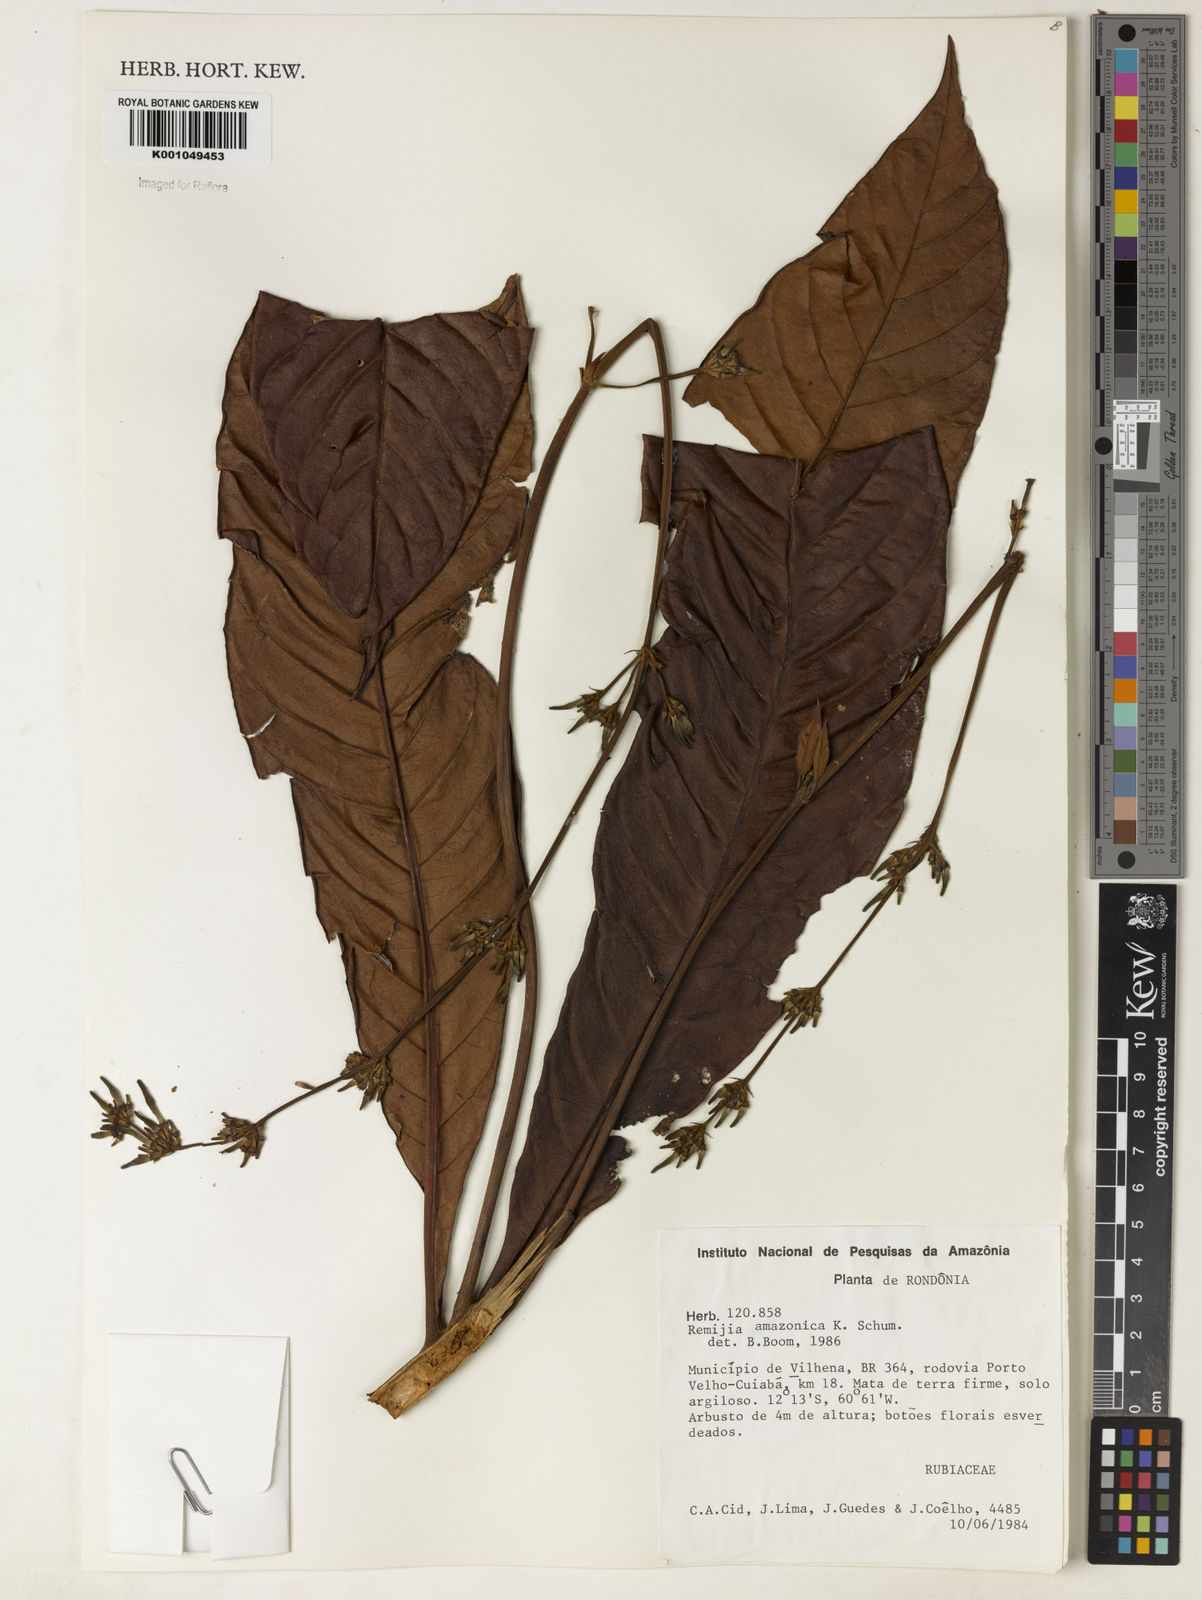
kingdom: Plantae
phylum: Tracheophyta
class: Magnoliopsida
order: Gentianales
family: Rubiaceae
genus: Remijia
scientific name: Remijia amazonica
